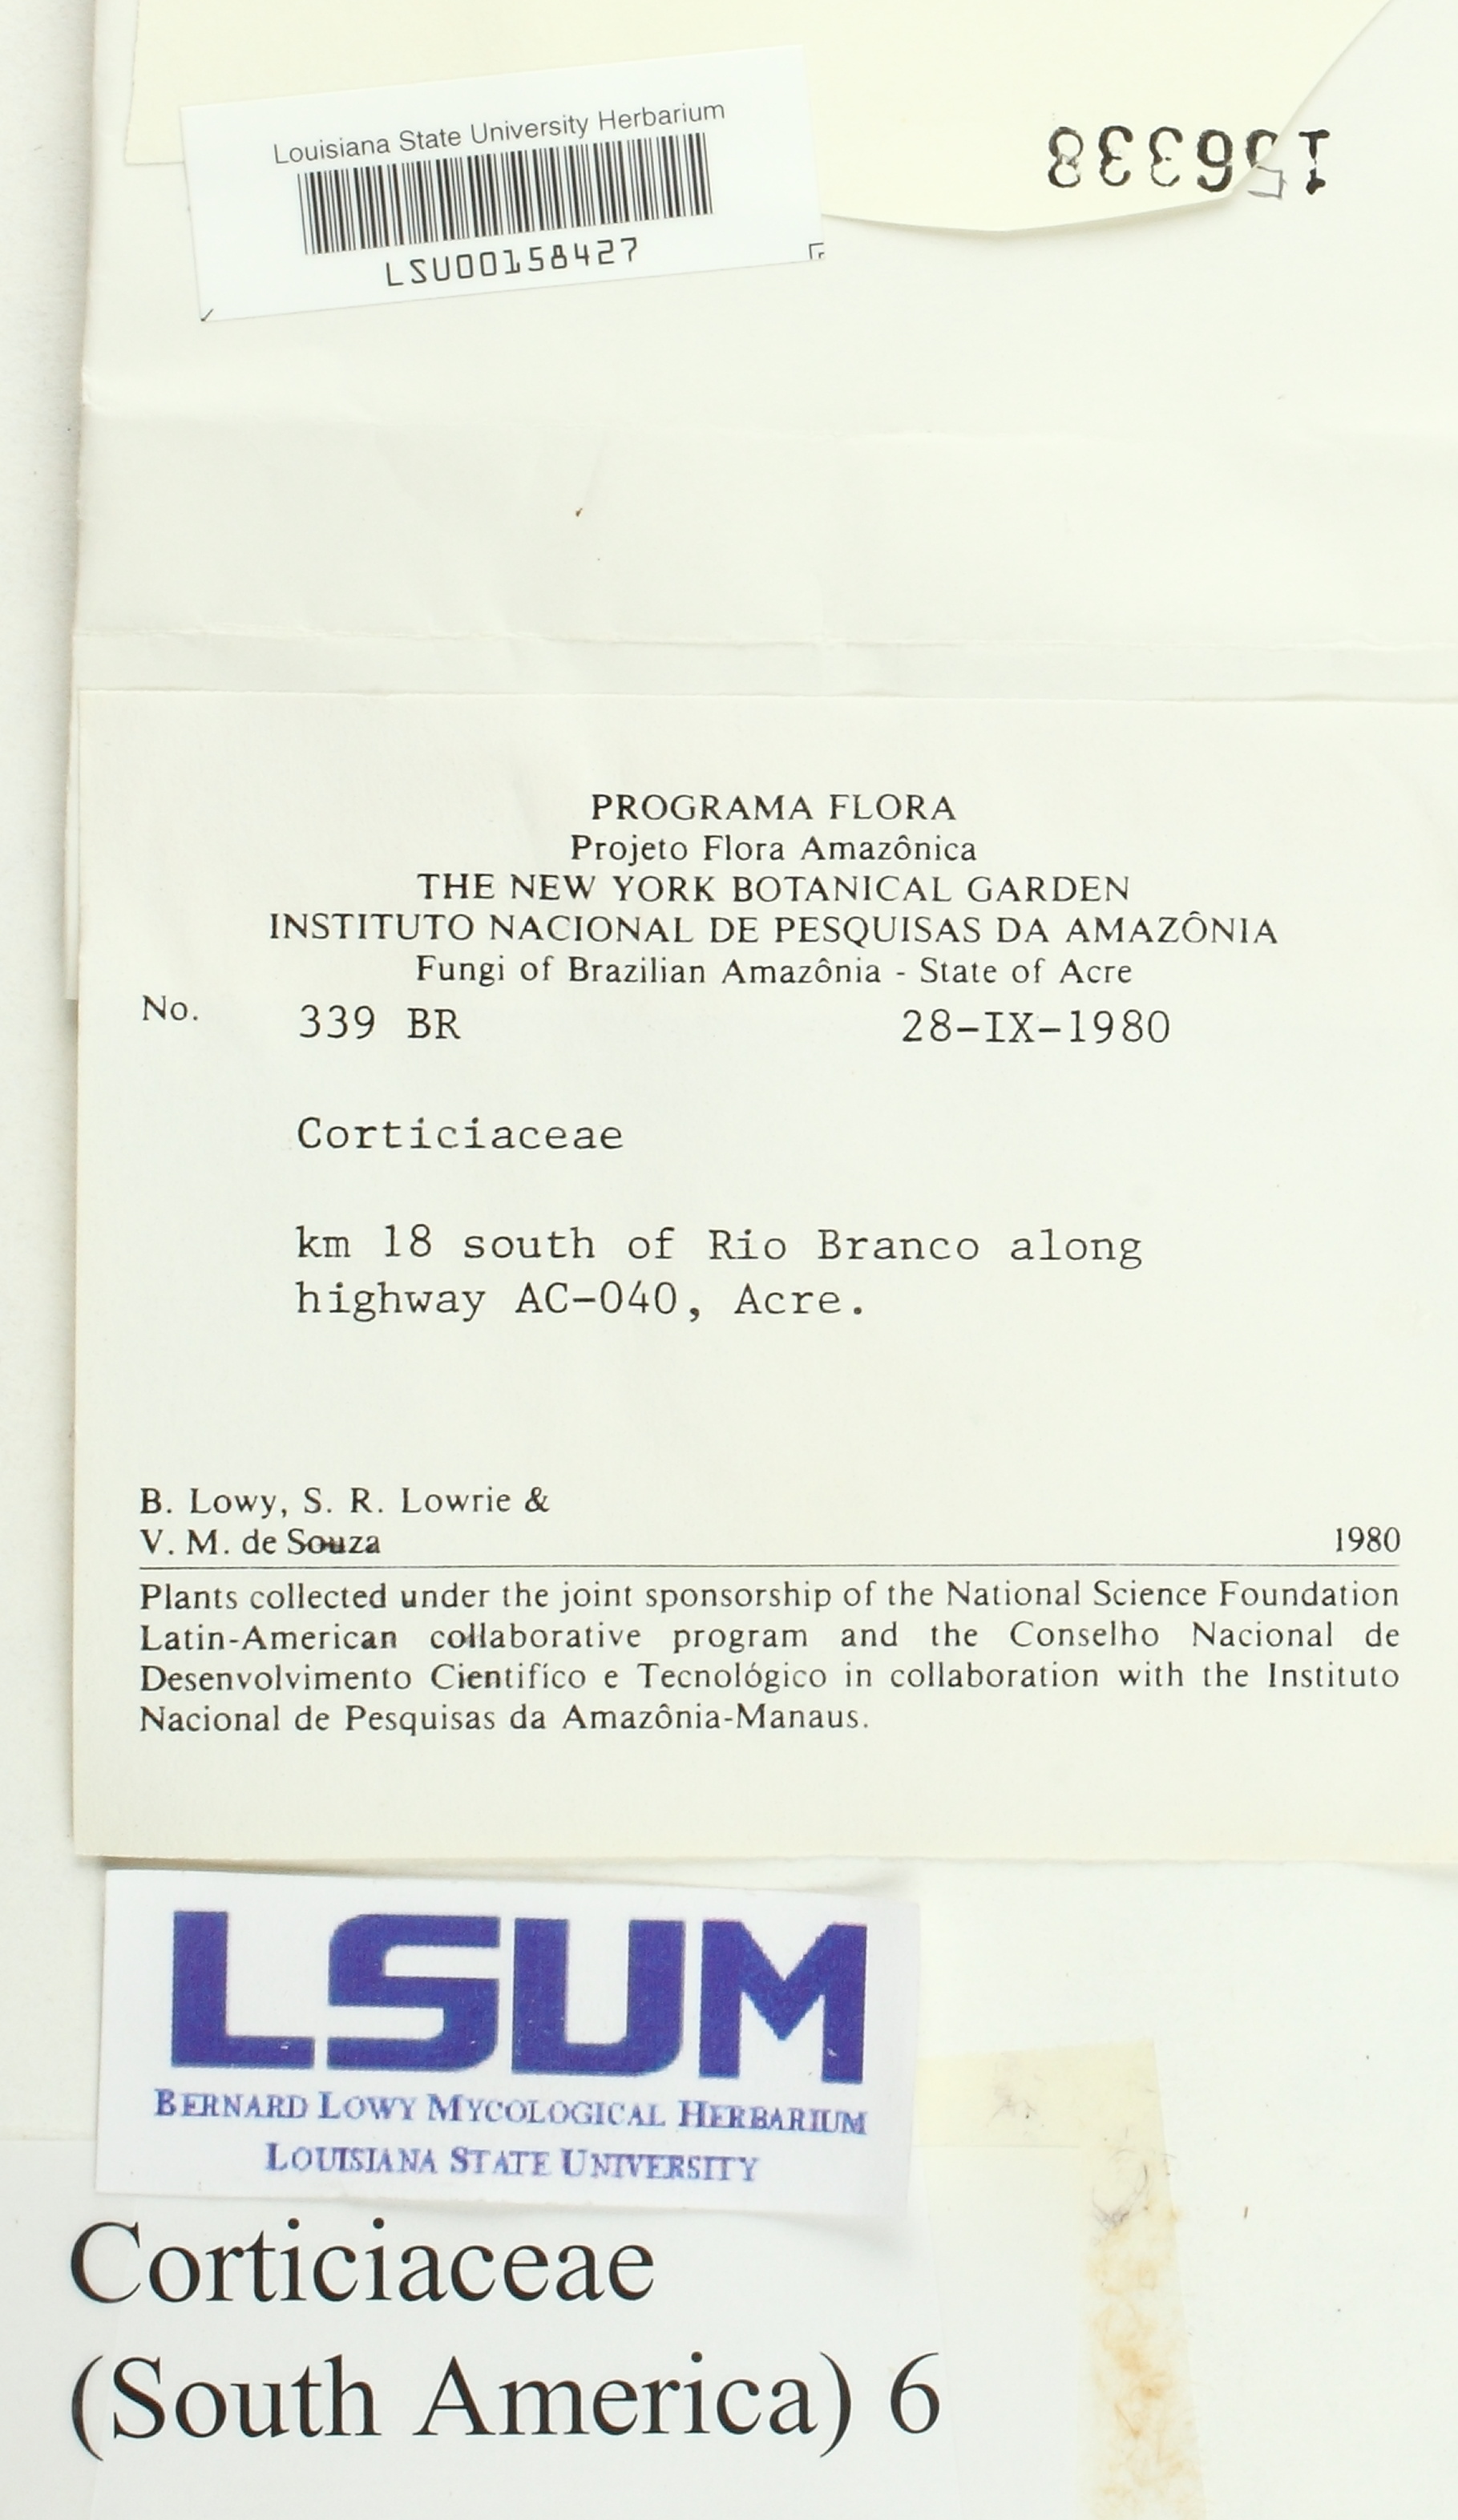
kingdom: Fungi
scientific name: Fungi
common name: Fungi
